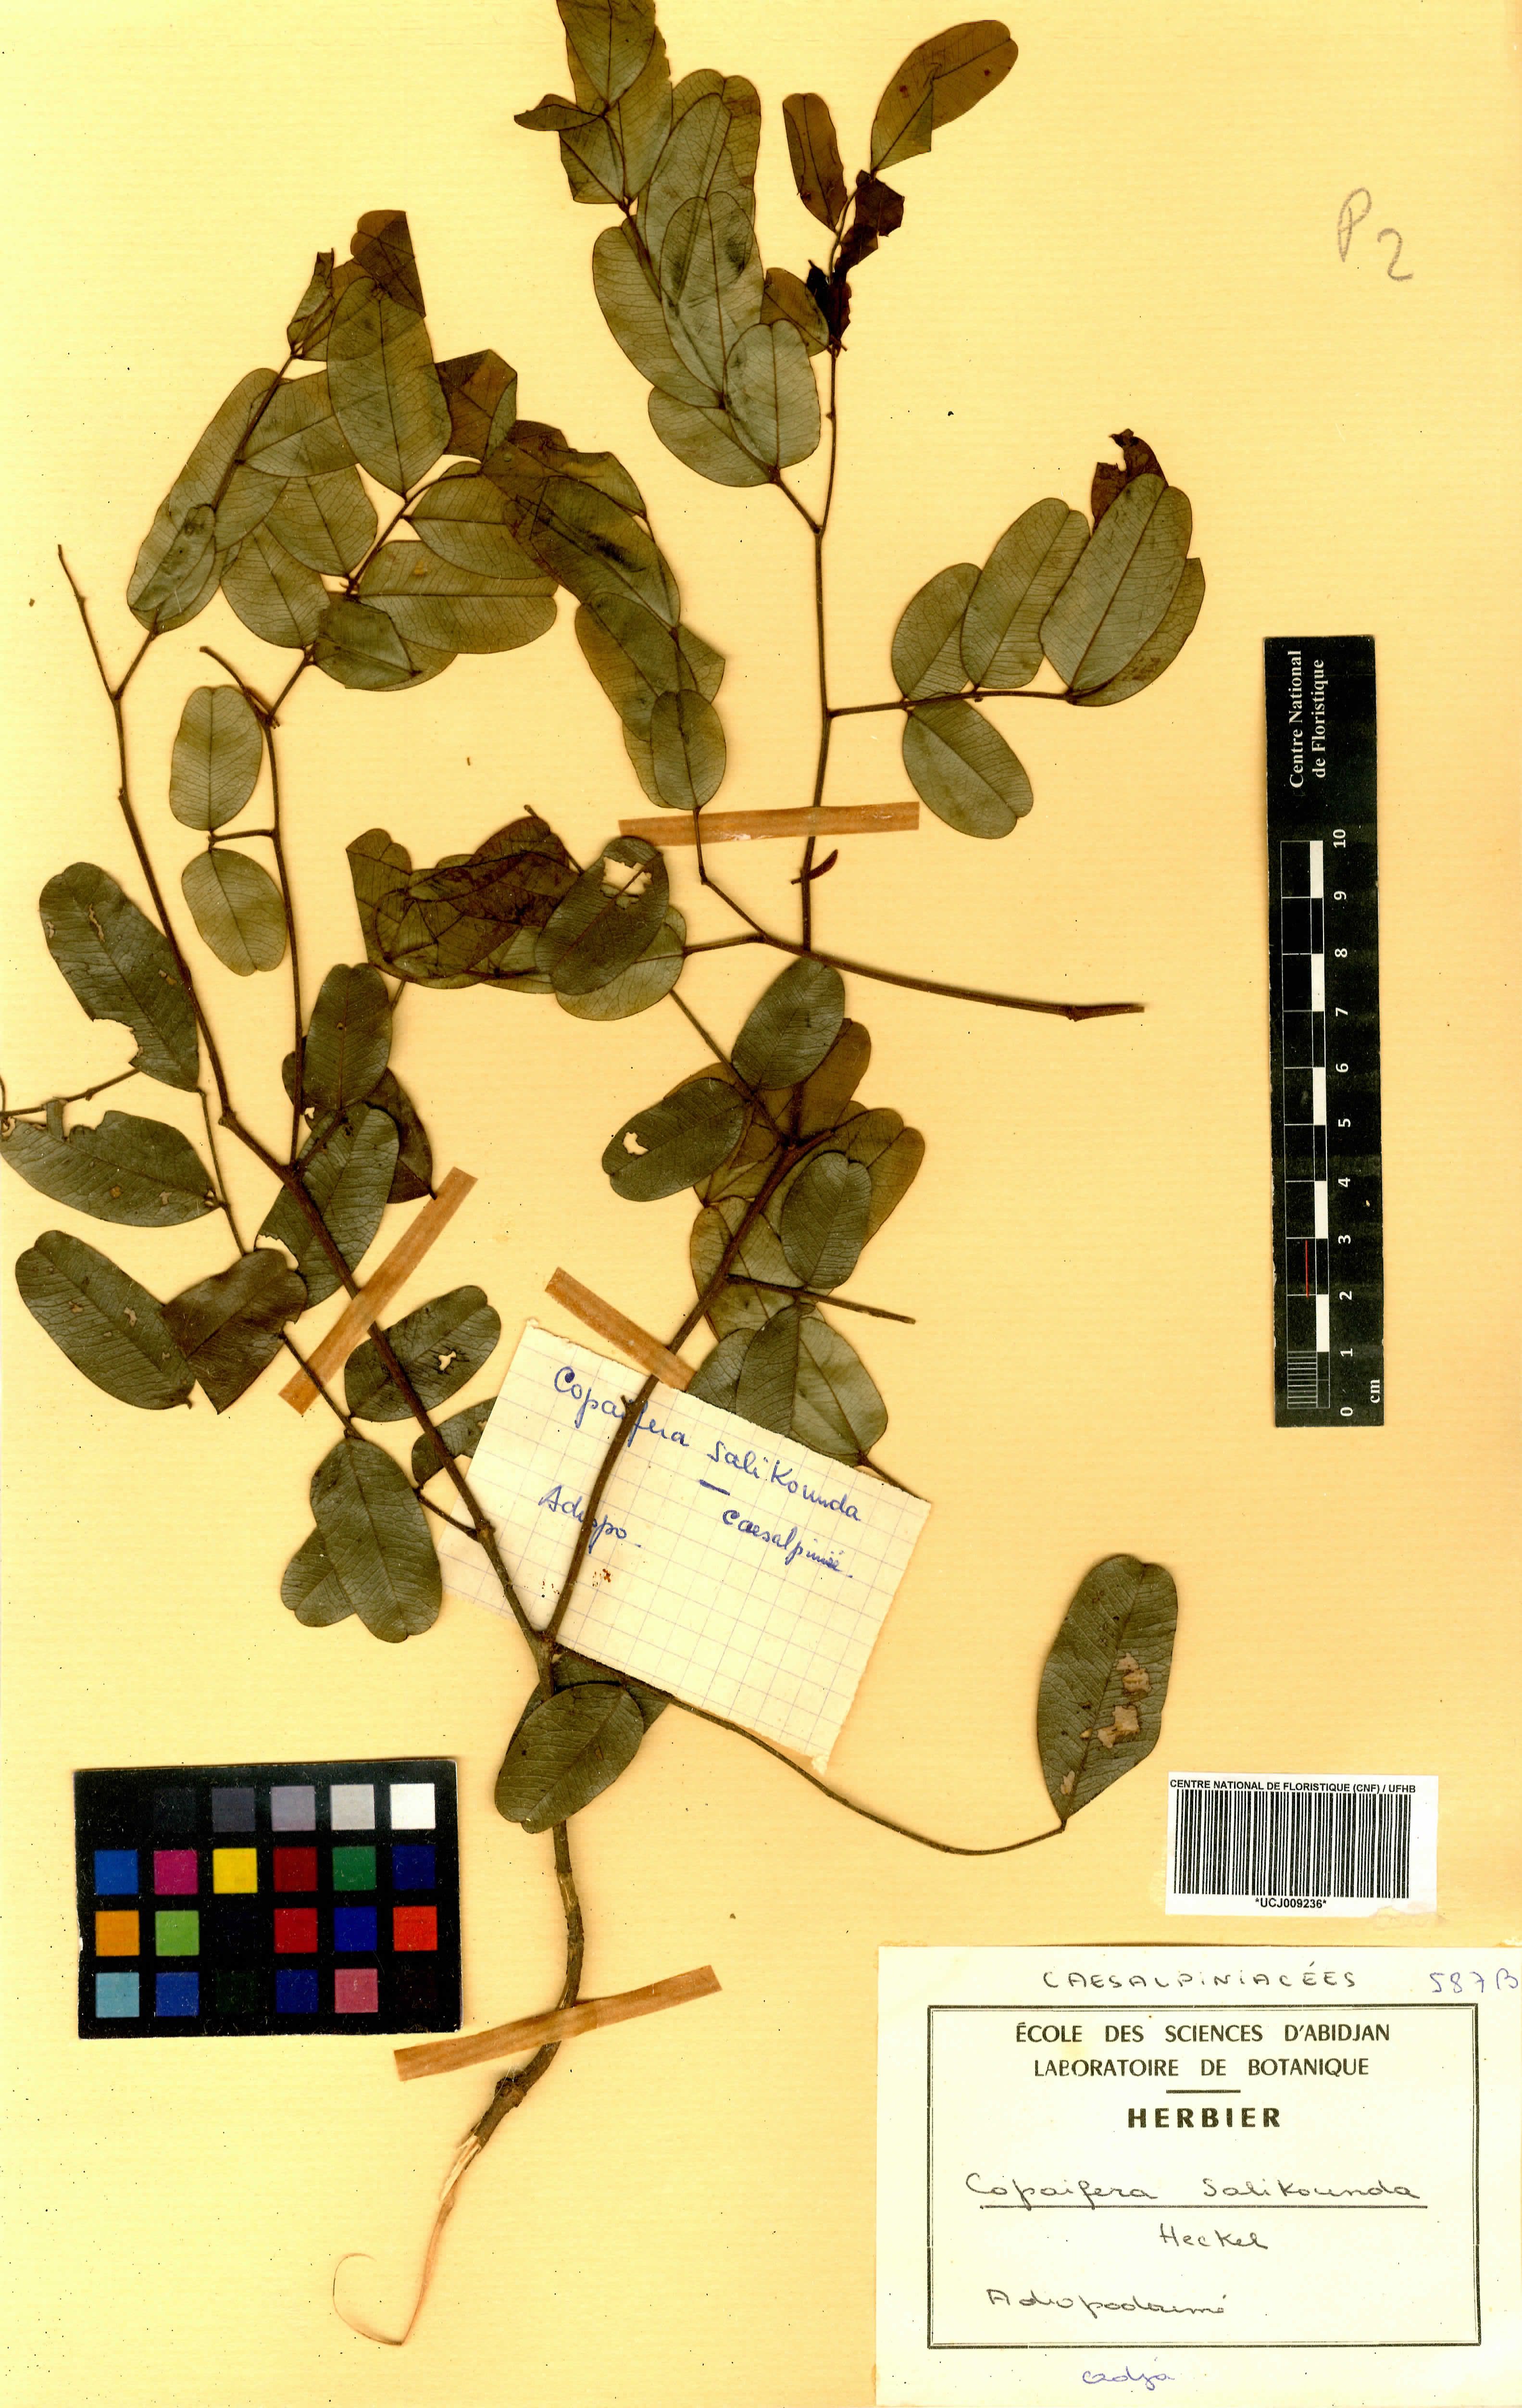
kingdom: Plantae
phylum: Tracheophyta
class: Magnoliopsida
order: Fabales
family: Fabaceae
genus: Copaifera
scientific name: Copaifera salikounda
